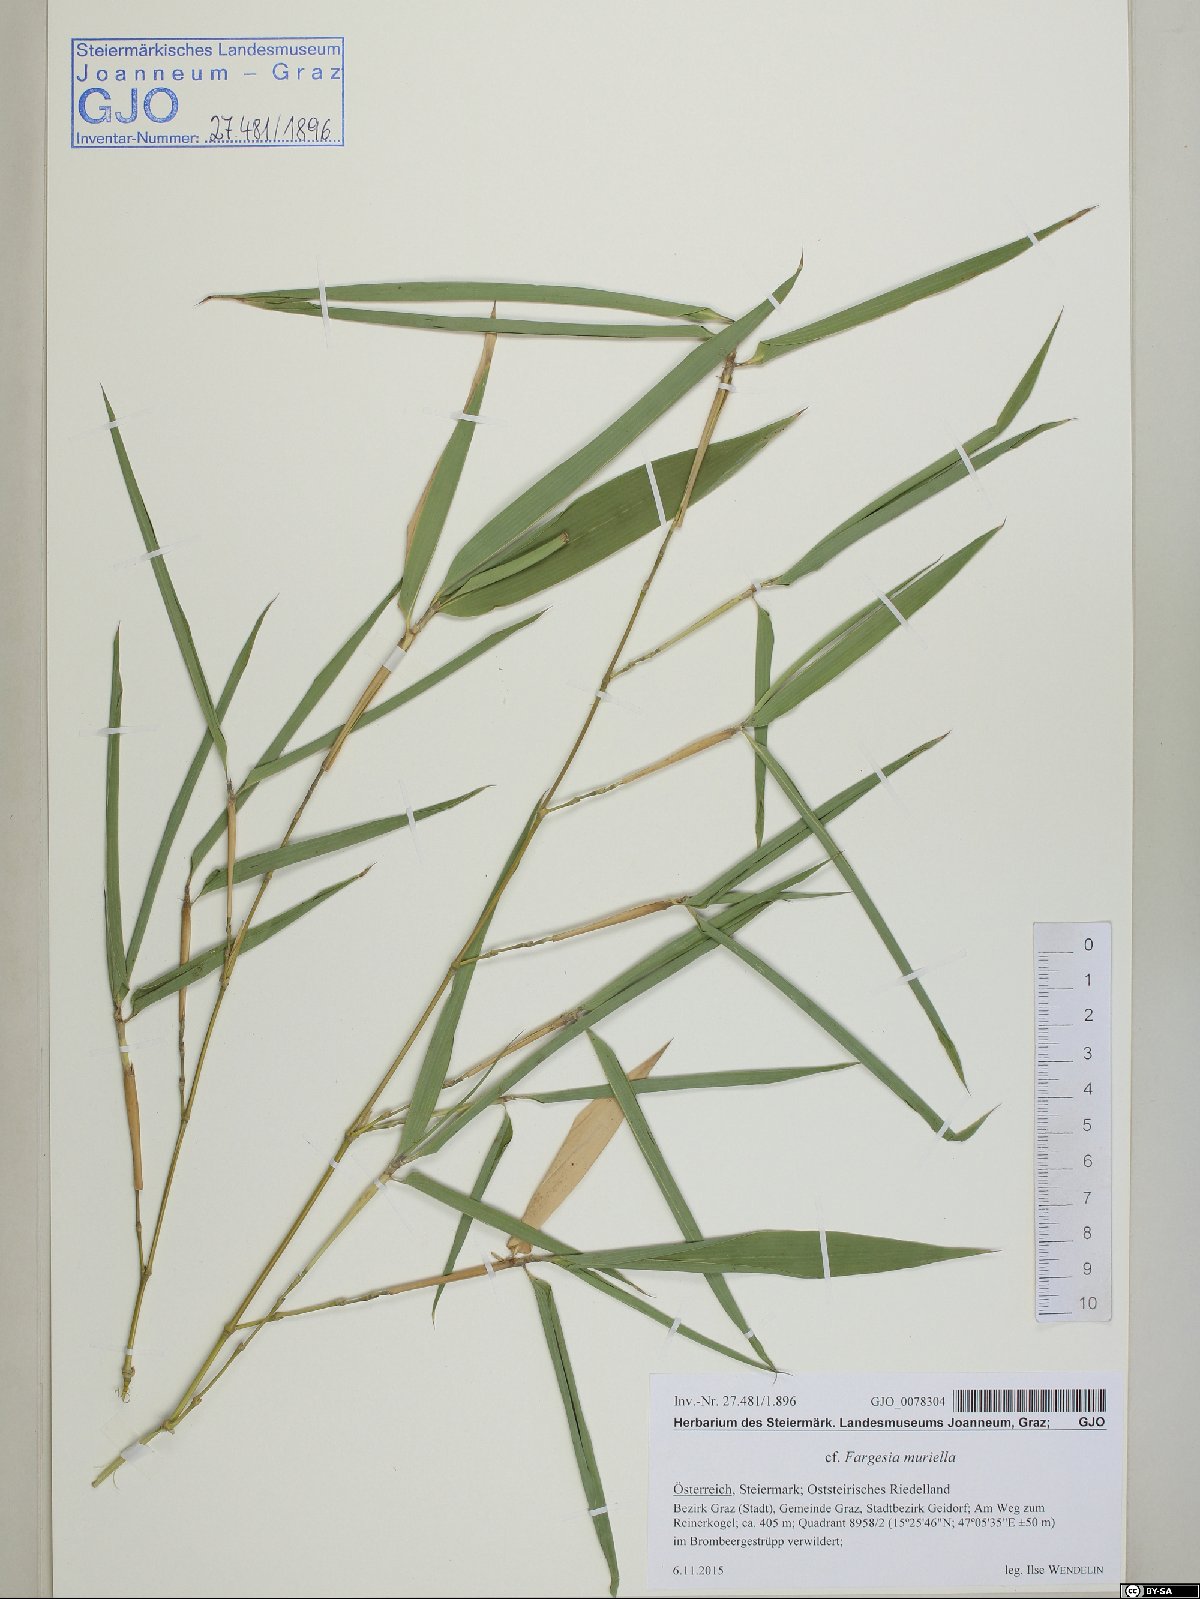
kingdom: Plantae
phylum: Tracheophyta
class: Liliopsida
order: Poales
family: Poaceae
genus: Fargesia
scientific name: Fargesia murielae
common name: Umbrella bamboo
